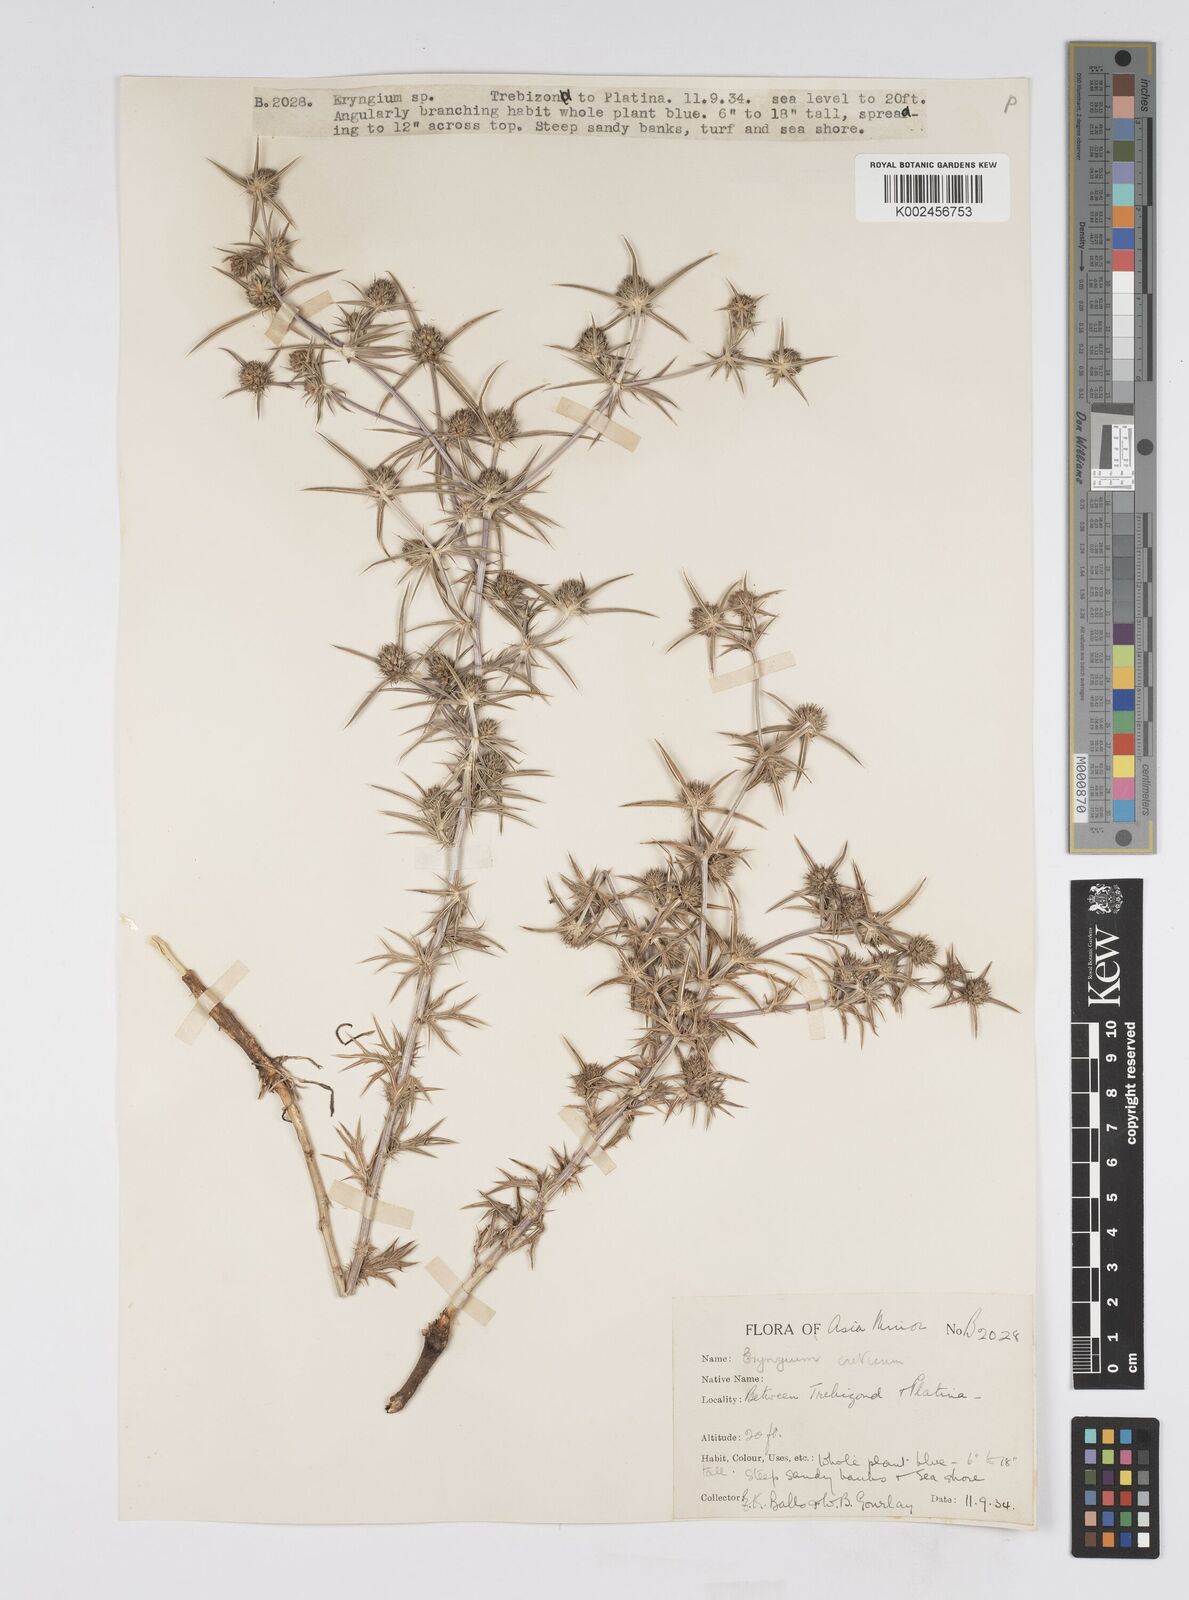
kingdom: Plantae
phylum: Tracheophyta
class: Magnoliopsida
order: Apiales
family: Apiaceae
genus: Eryngium
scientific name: Eryngium creticum
